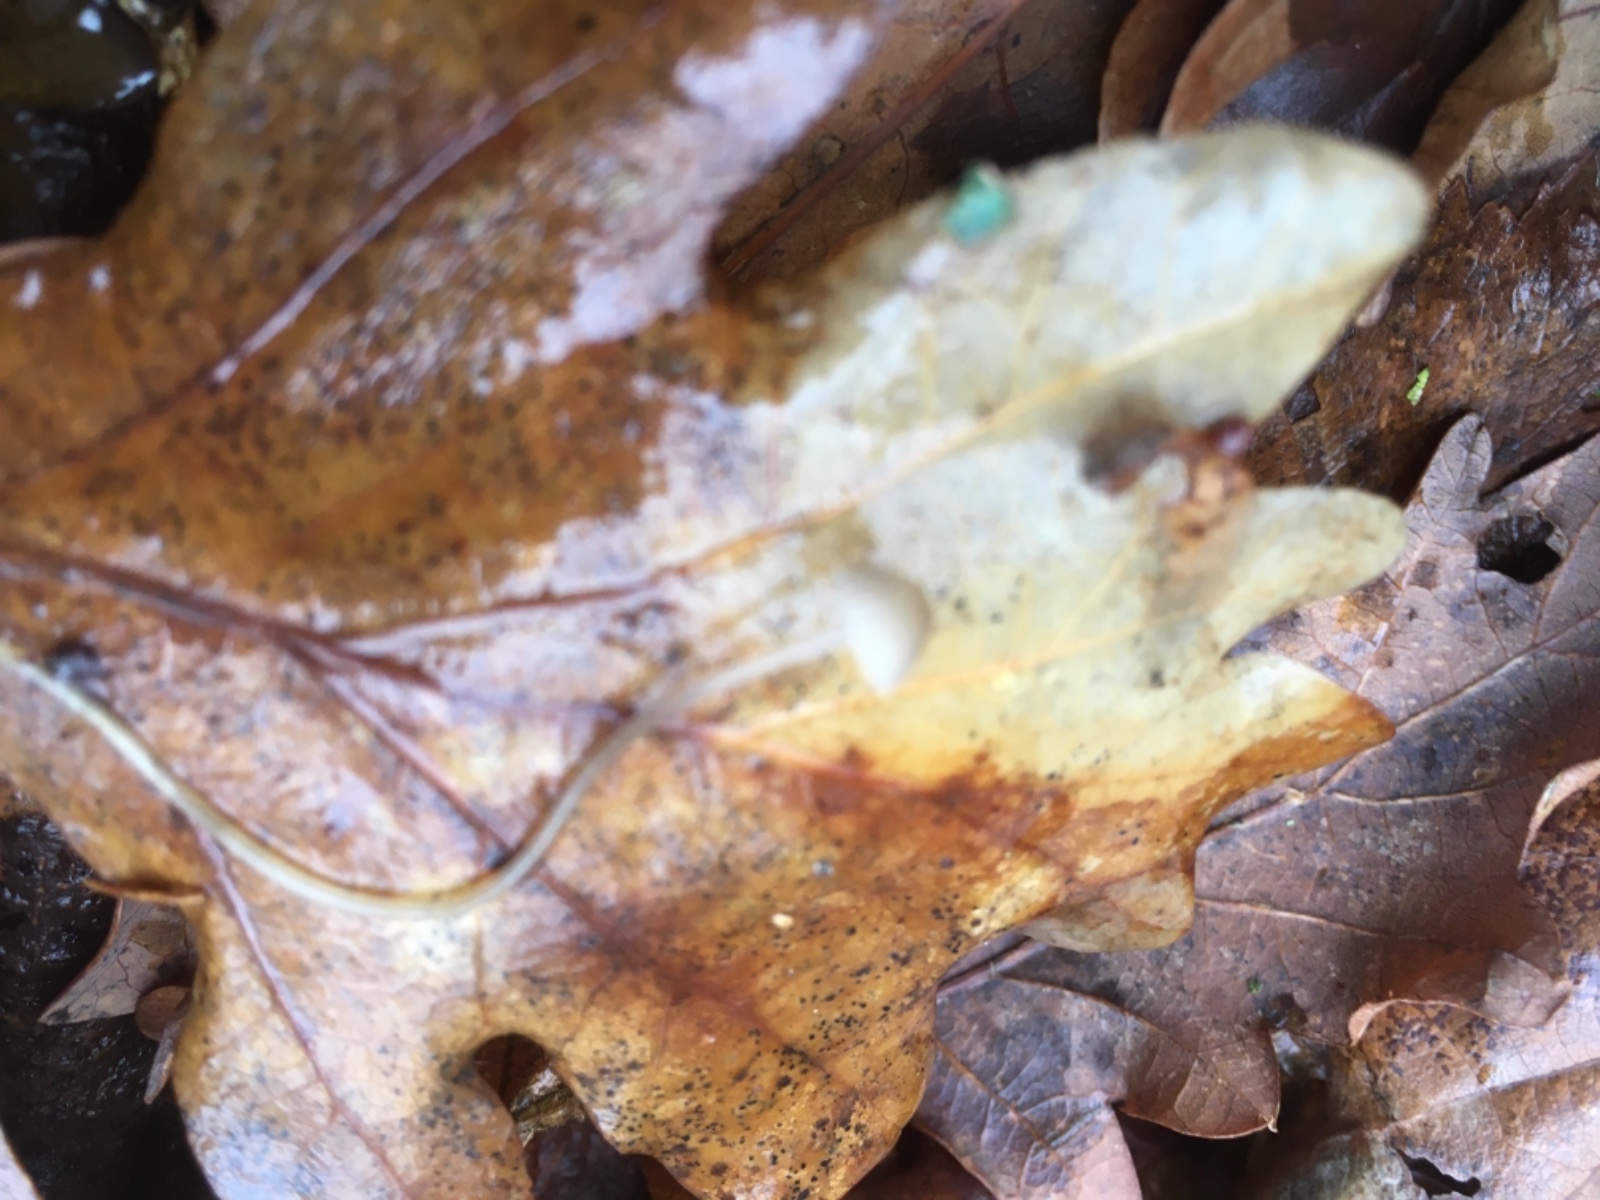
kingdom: Fungi
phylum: Basidiomycota
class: Agaricomycetes
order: Agaricales
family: Mycenaceae
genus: Mycena
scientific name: Mycena
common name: huesvamp
